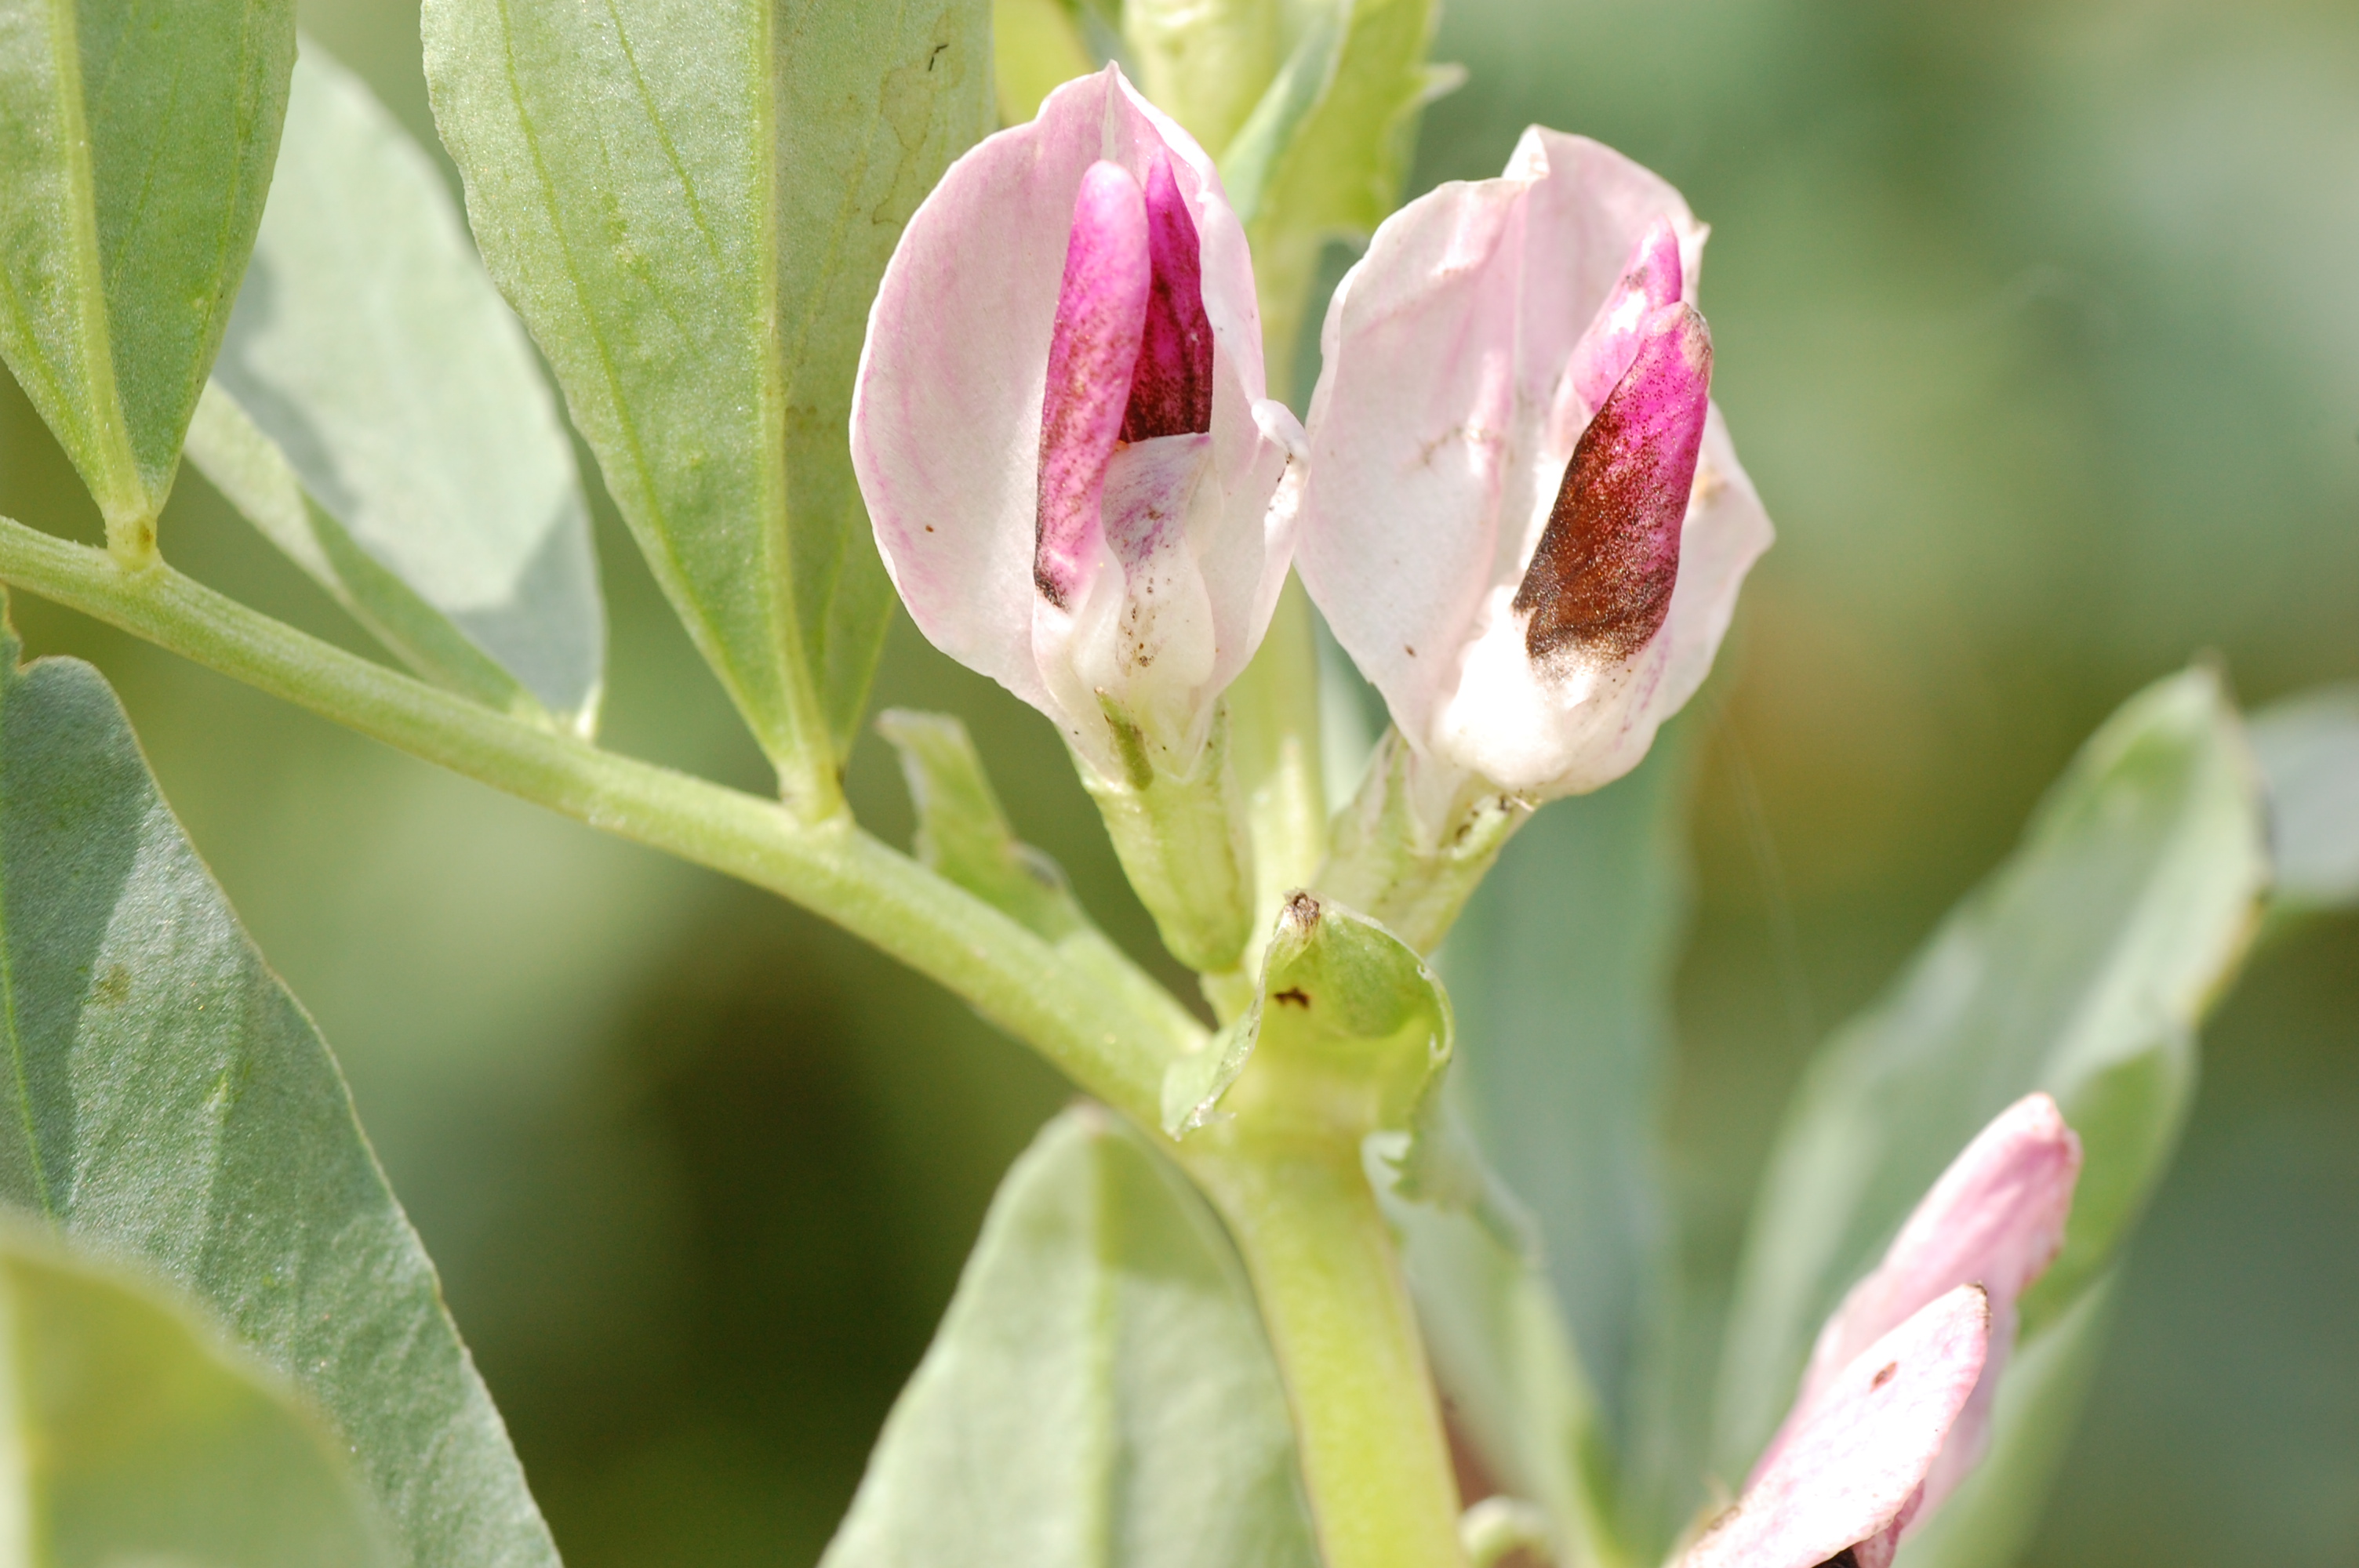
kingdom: Plantae
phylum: Tracheophyta
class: Magnoliopsida
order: Fabales
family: Fabaceae
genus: Vicia
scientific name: Vicia faba
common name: Broad bean
